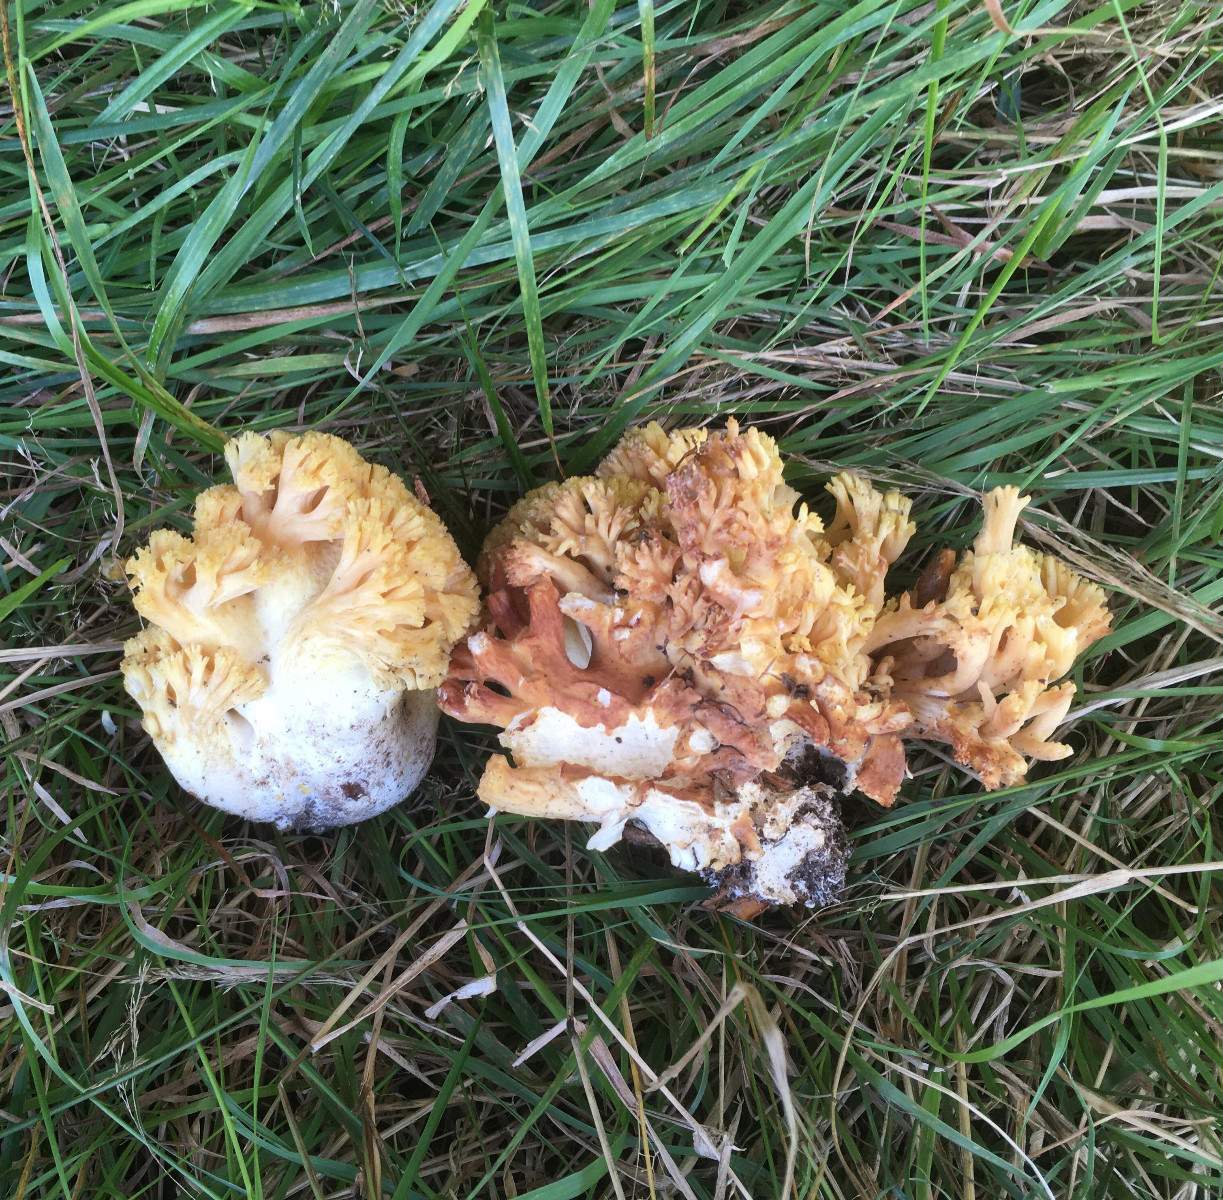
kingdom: Fungi
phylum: Basidiomycota
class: Agaricomycetes
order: Gomphales
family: Gomphaceae
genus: Ramaria
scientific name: Ramaria krieglsteineri
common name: smalsporet koralsvamp
